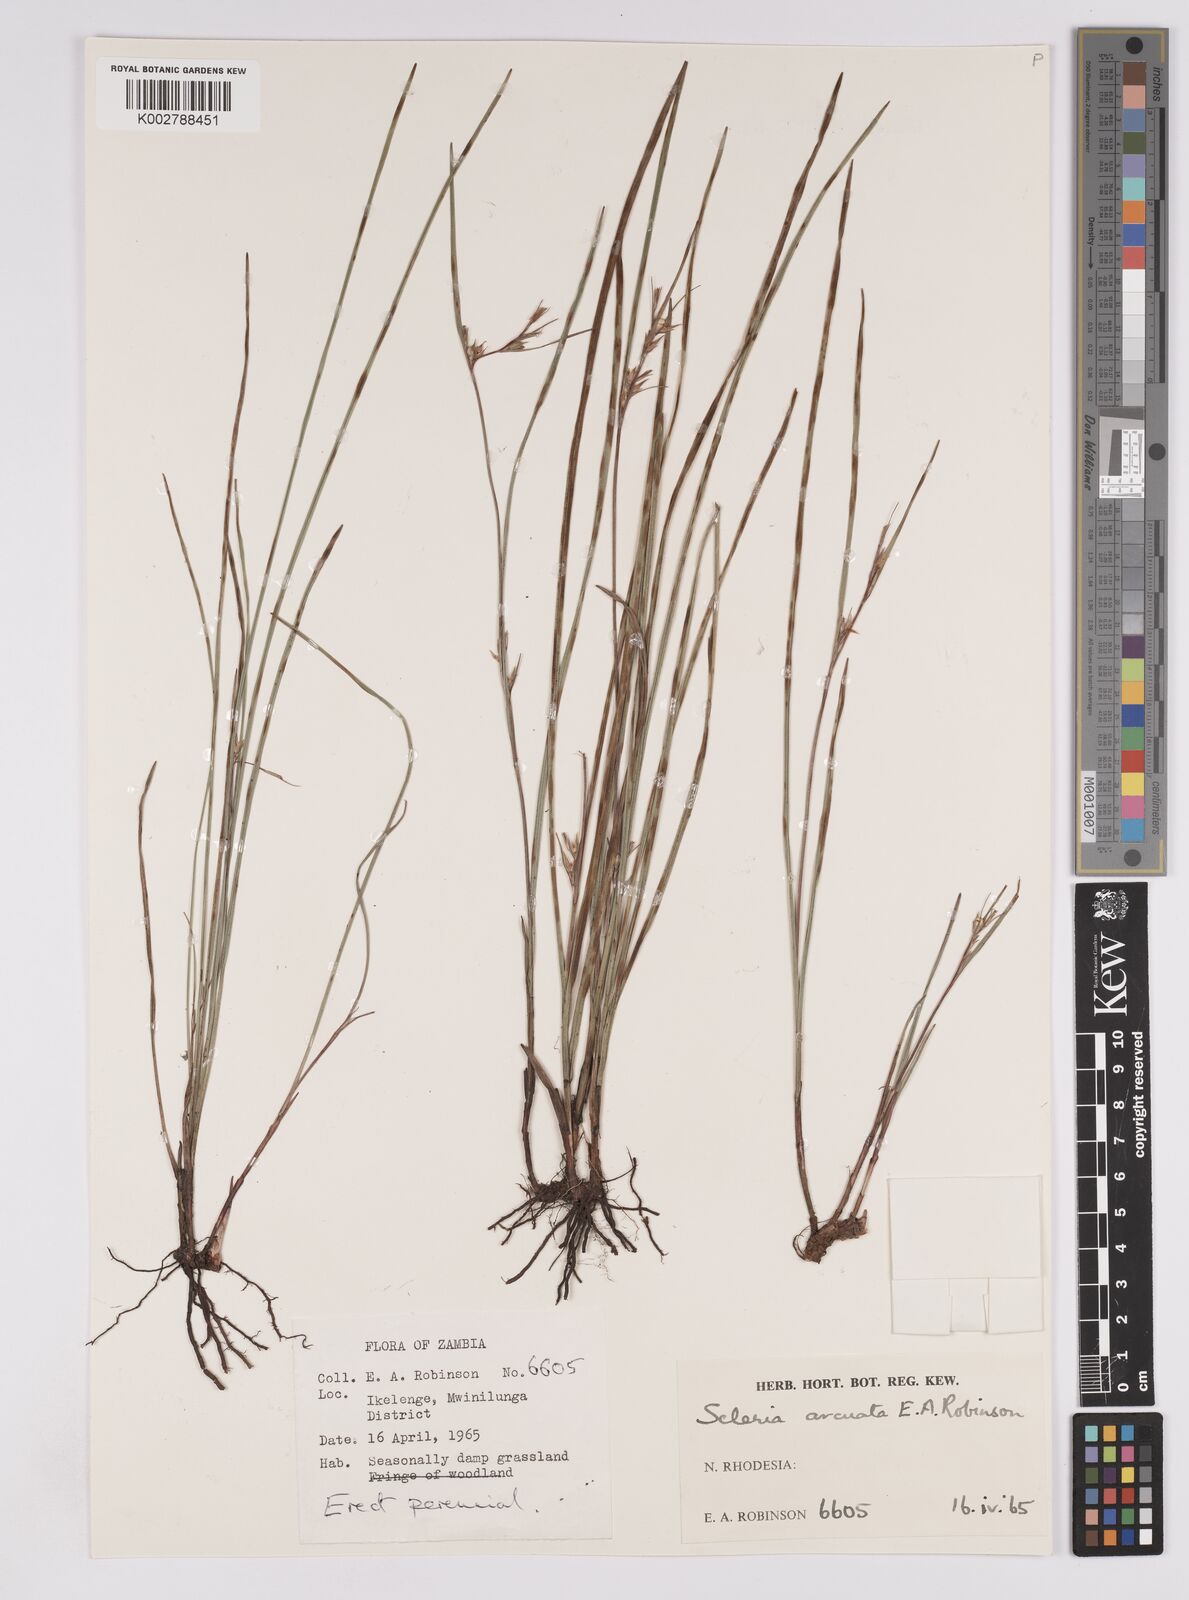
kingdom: Plantae
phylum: Tracheophyta
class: Liliopsida
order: Poales
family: Cyperaceae
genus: Scleria
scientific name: Scleria arcuata
